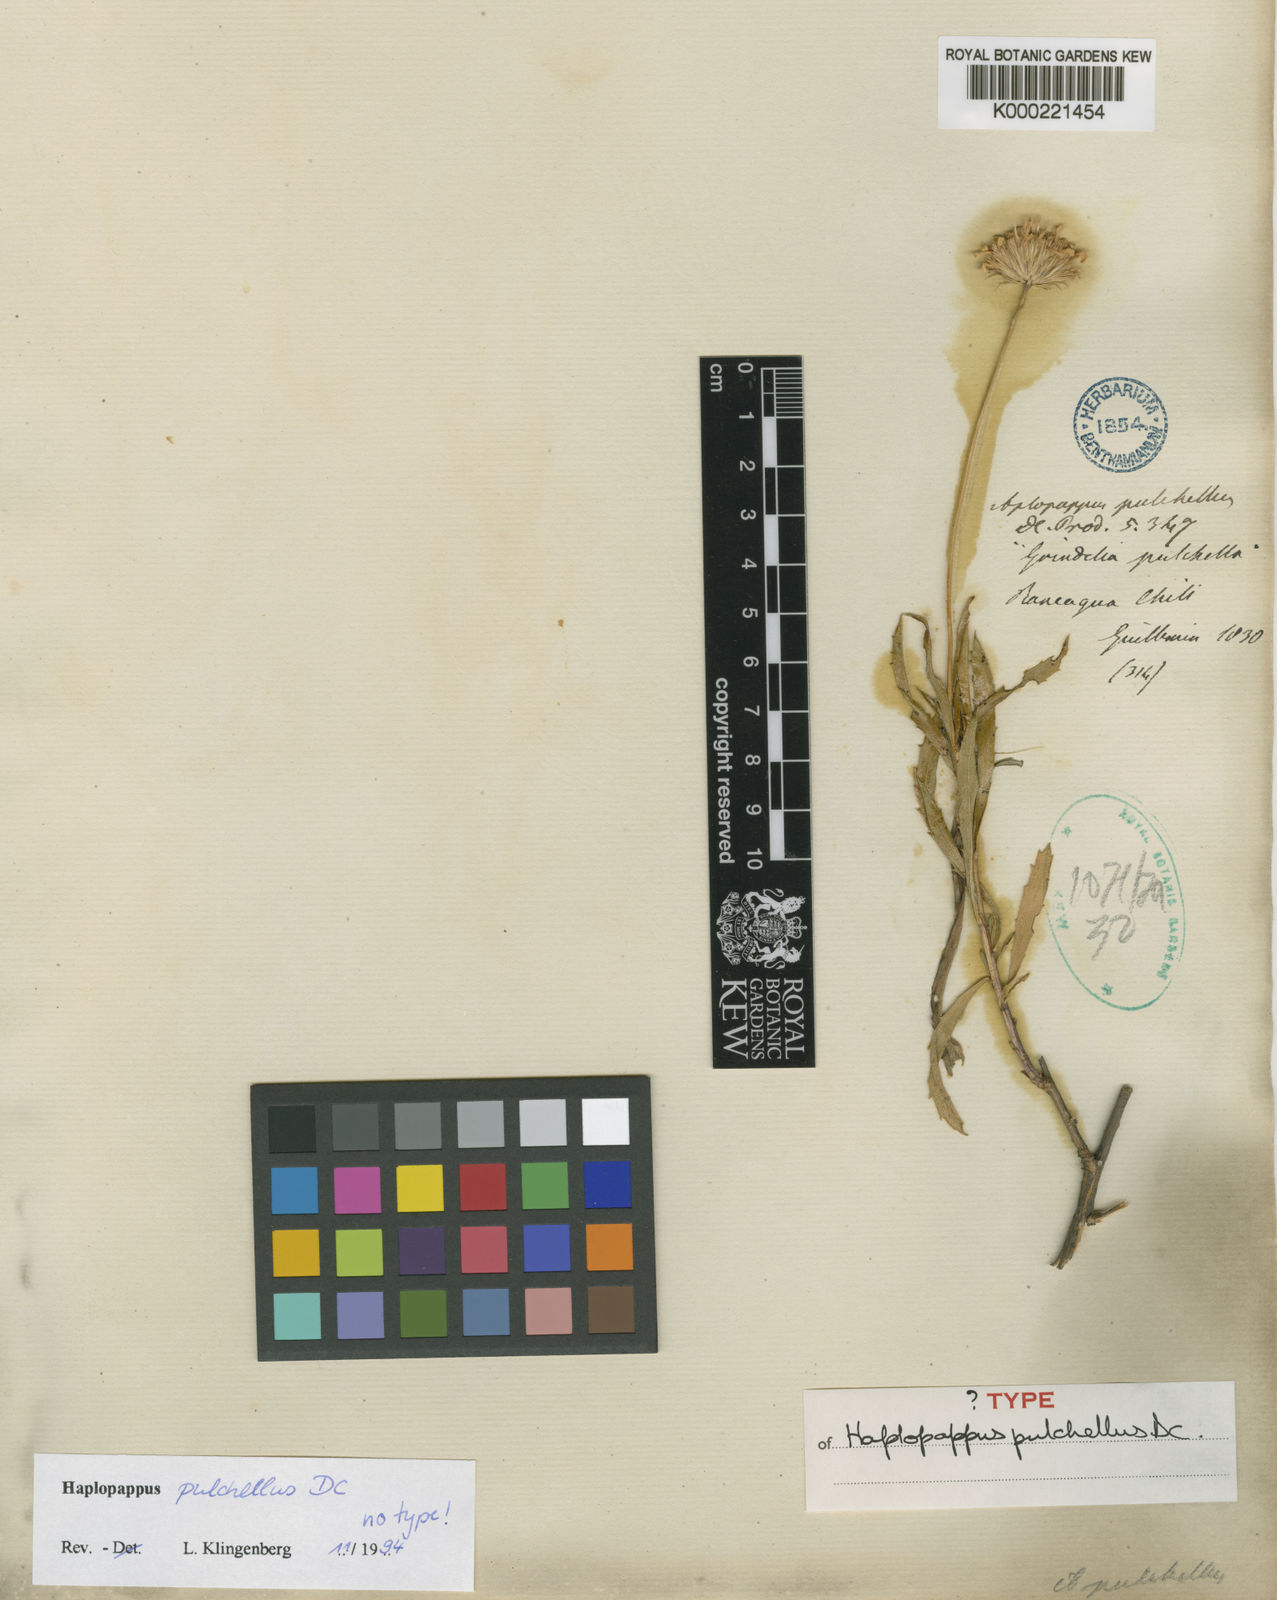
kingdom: Plantae
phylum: Tracheophyta
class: Magnoliopsida
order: Asterales
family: Asteraceae
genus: Haplopappus
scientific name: Haplopappus pulchellus
